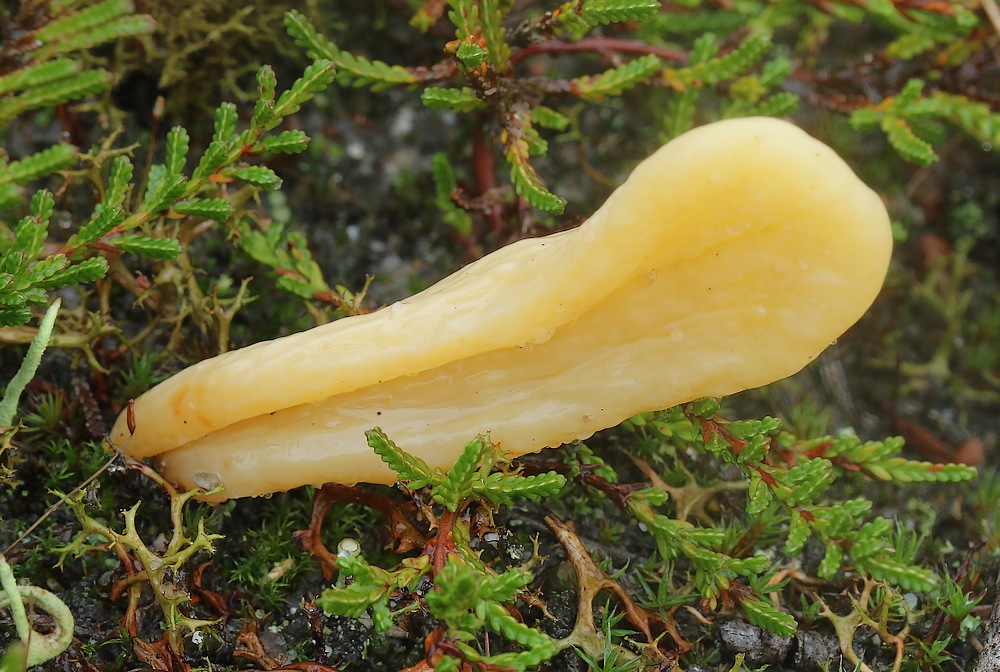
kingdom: Fungi
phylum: Basidiomycota
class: Agaricomycetes
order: Agaricales
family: Clavariaceae
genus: Clavaria
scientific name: Clavaria argillacea
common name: lerfarvet køllesvamp
